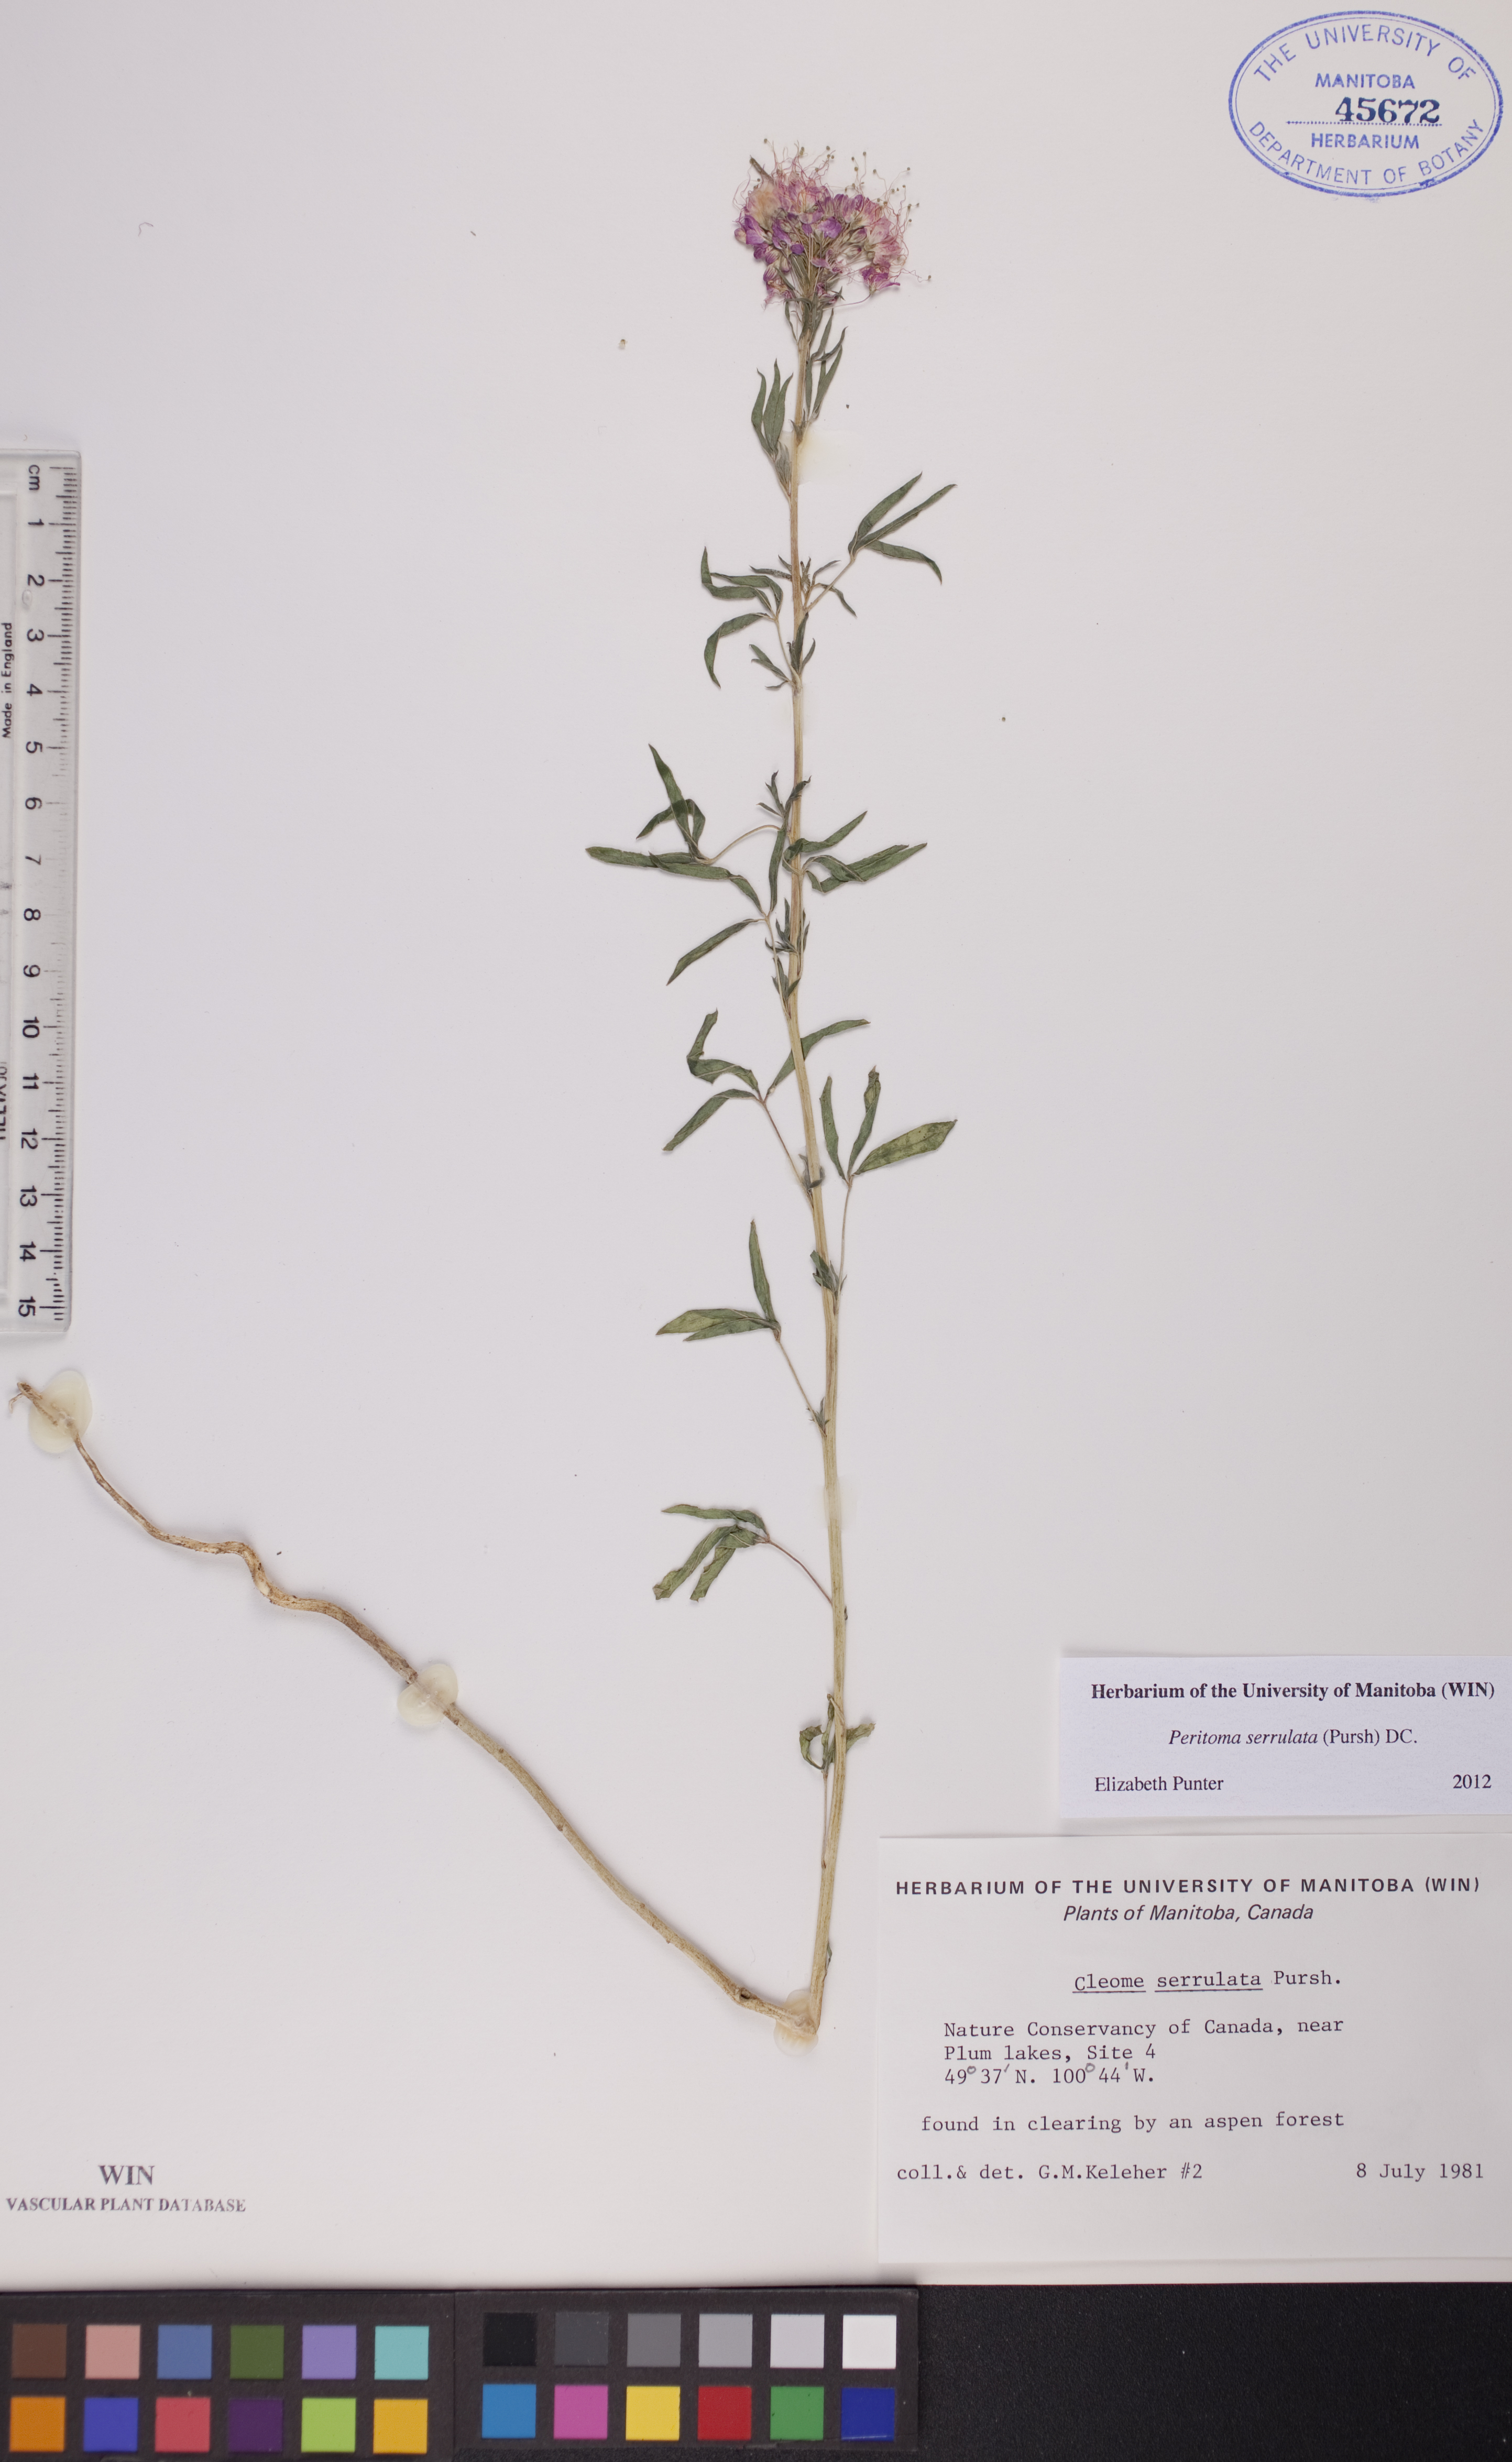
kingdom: Plantae
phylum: Tracheophyta
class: Magnoliopsida
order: Brassicales
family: Cleomaceae
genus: Cleomella
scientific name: Cleomella serrulata
